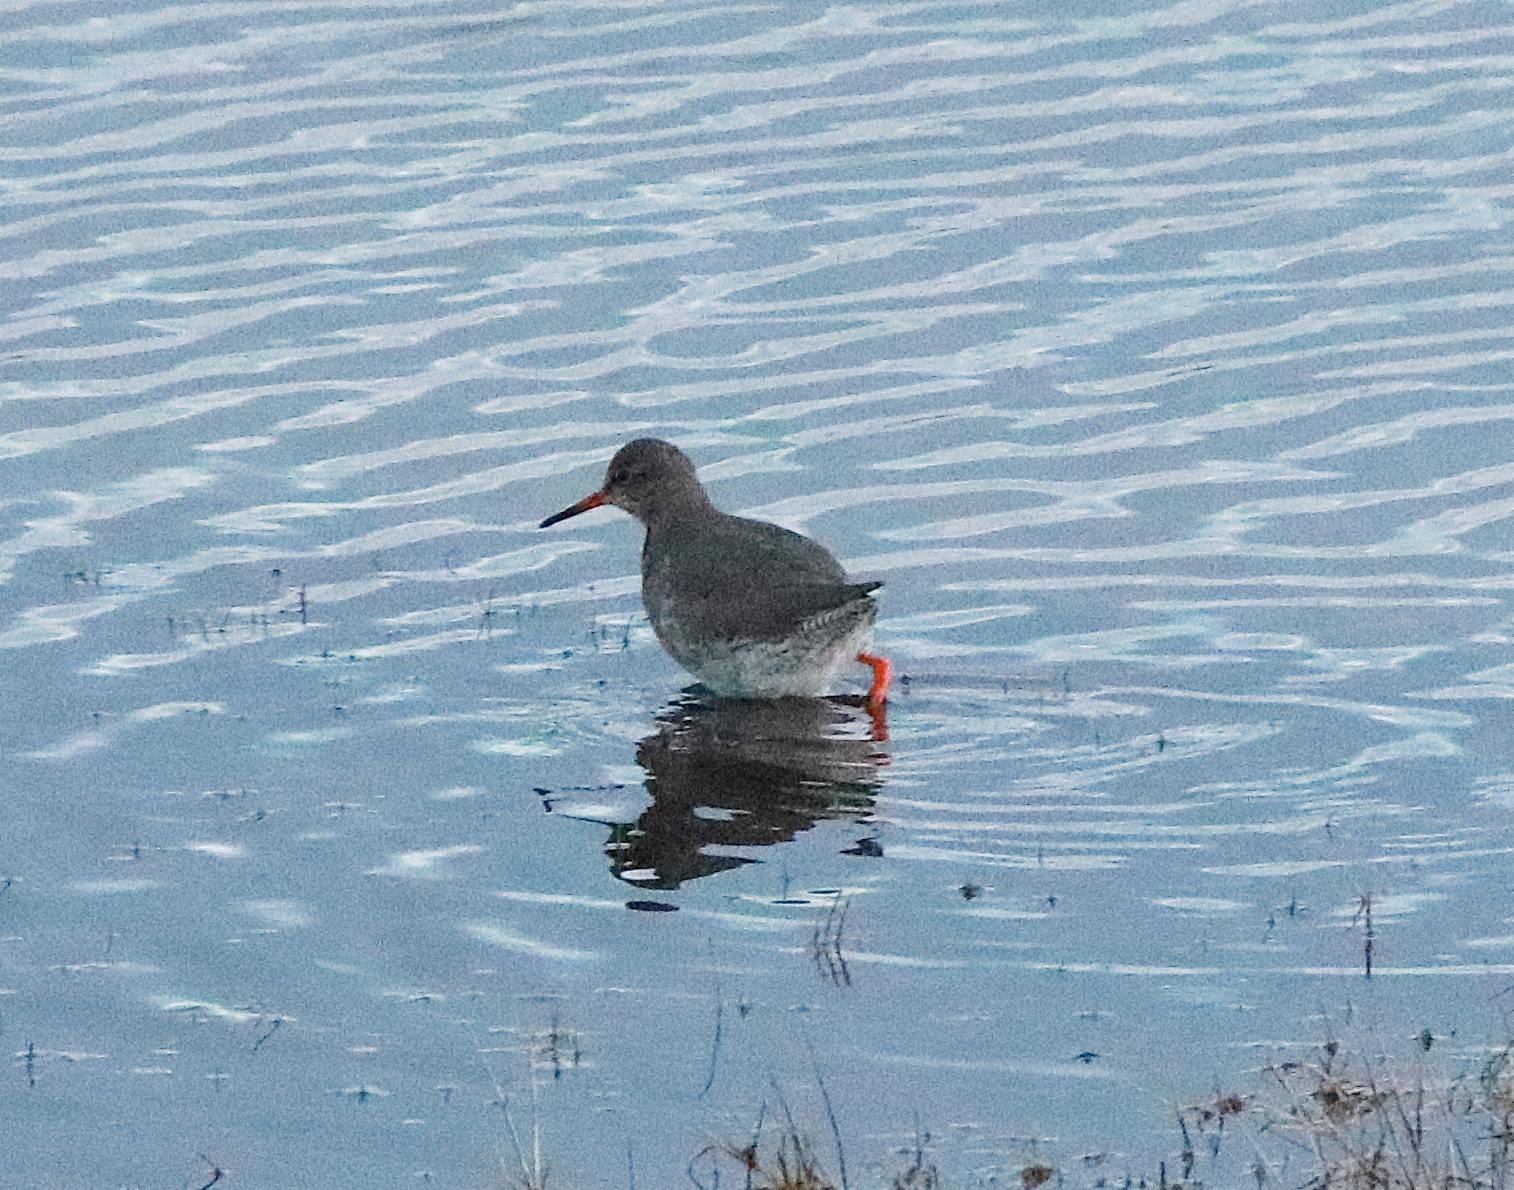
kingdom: Animalia
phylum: Chordata
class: Aves
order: Charadriiformes
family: Scolopacidae
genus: Tringa
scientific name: Tringa totanus
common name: Rødben
